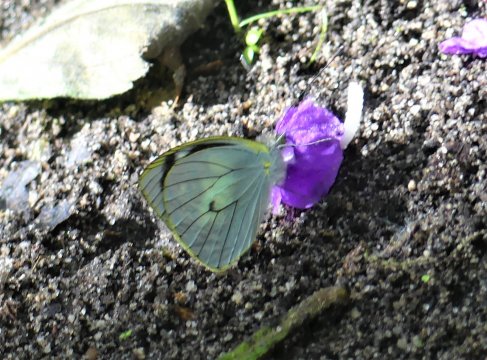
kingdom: Animalia
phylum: Arthropoda
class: Insecta
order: Lepidoptera
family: Pieridae
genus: Leptophobia
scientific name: Leptophobia penthica
